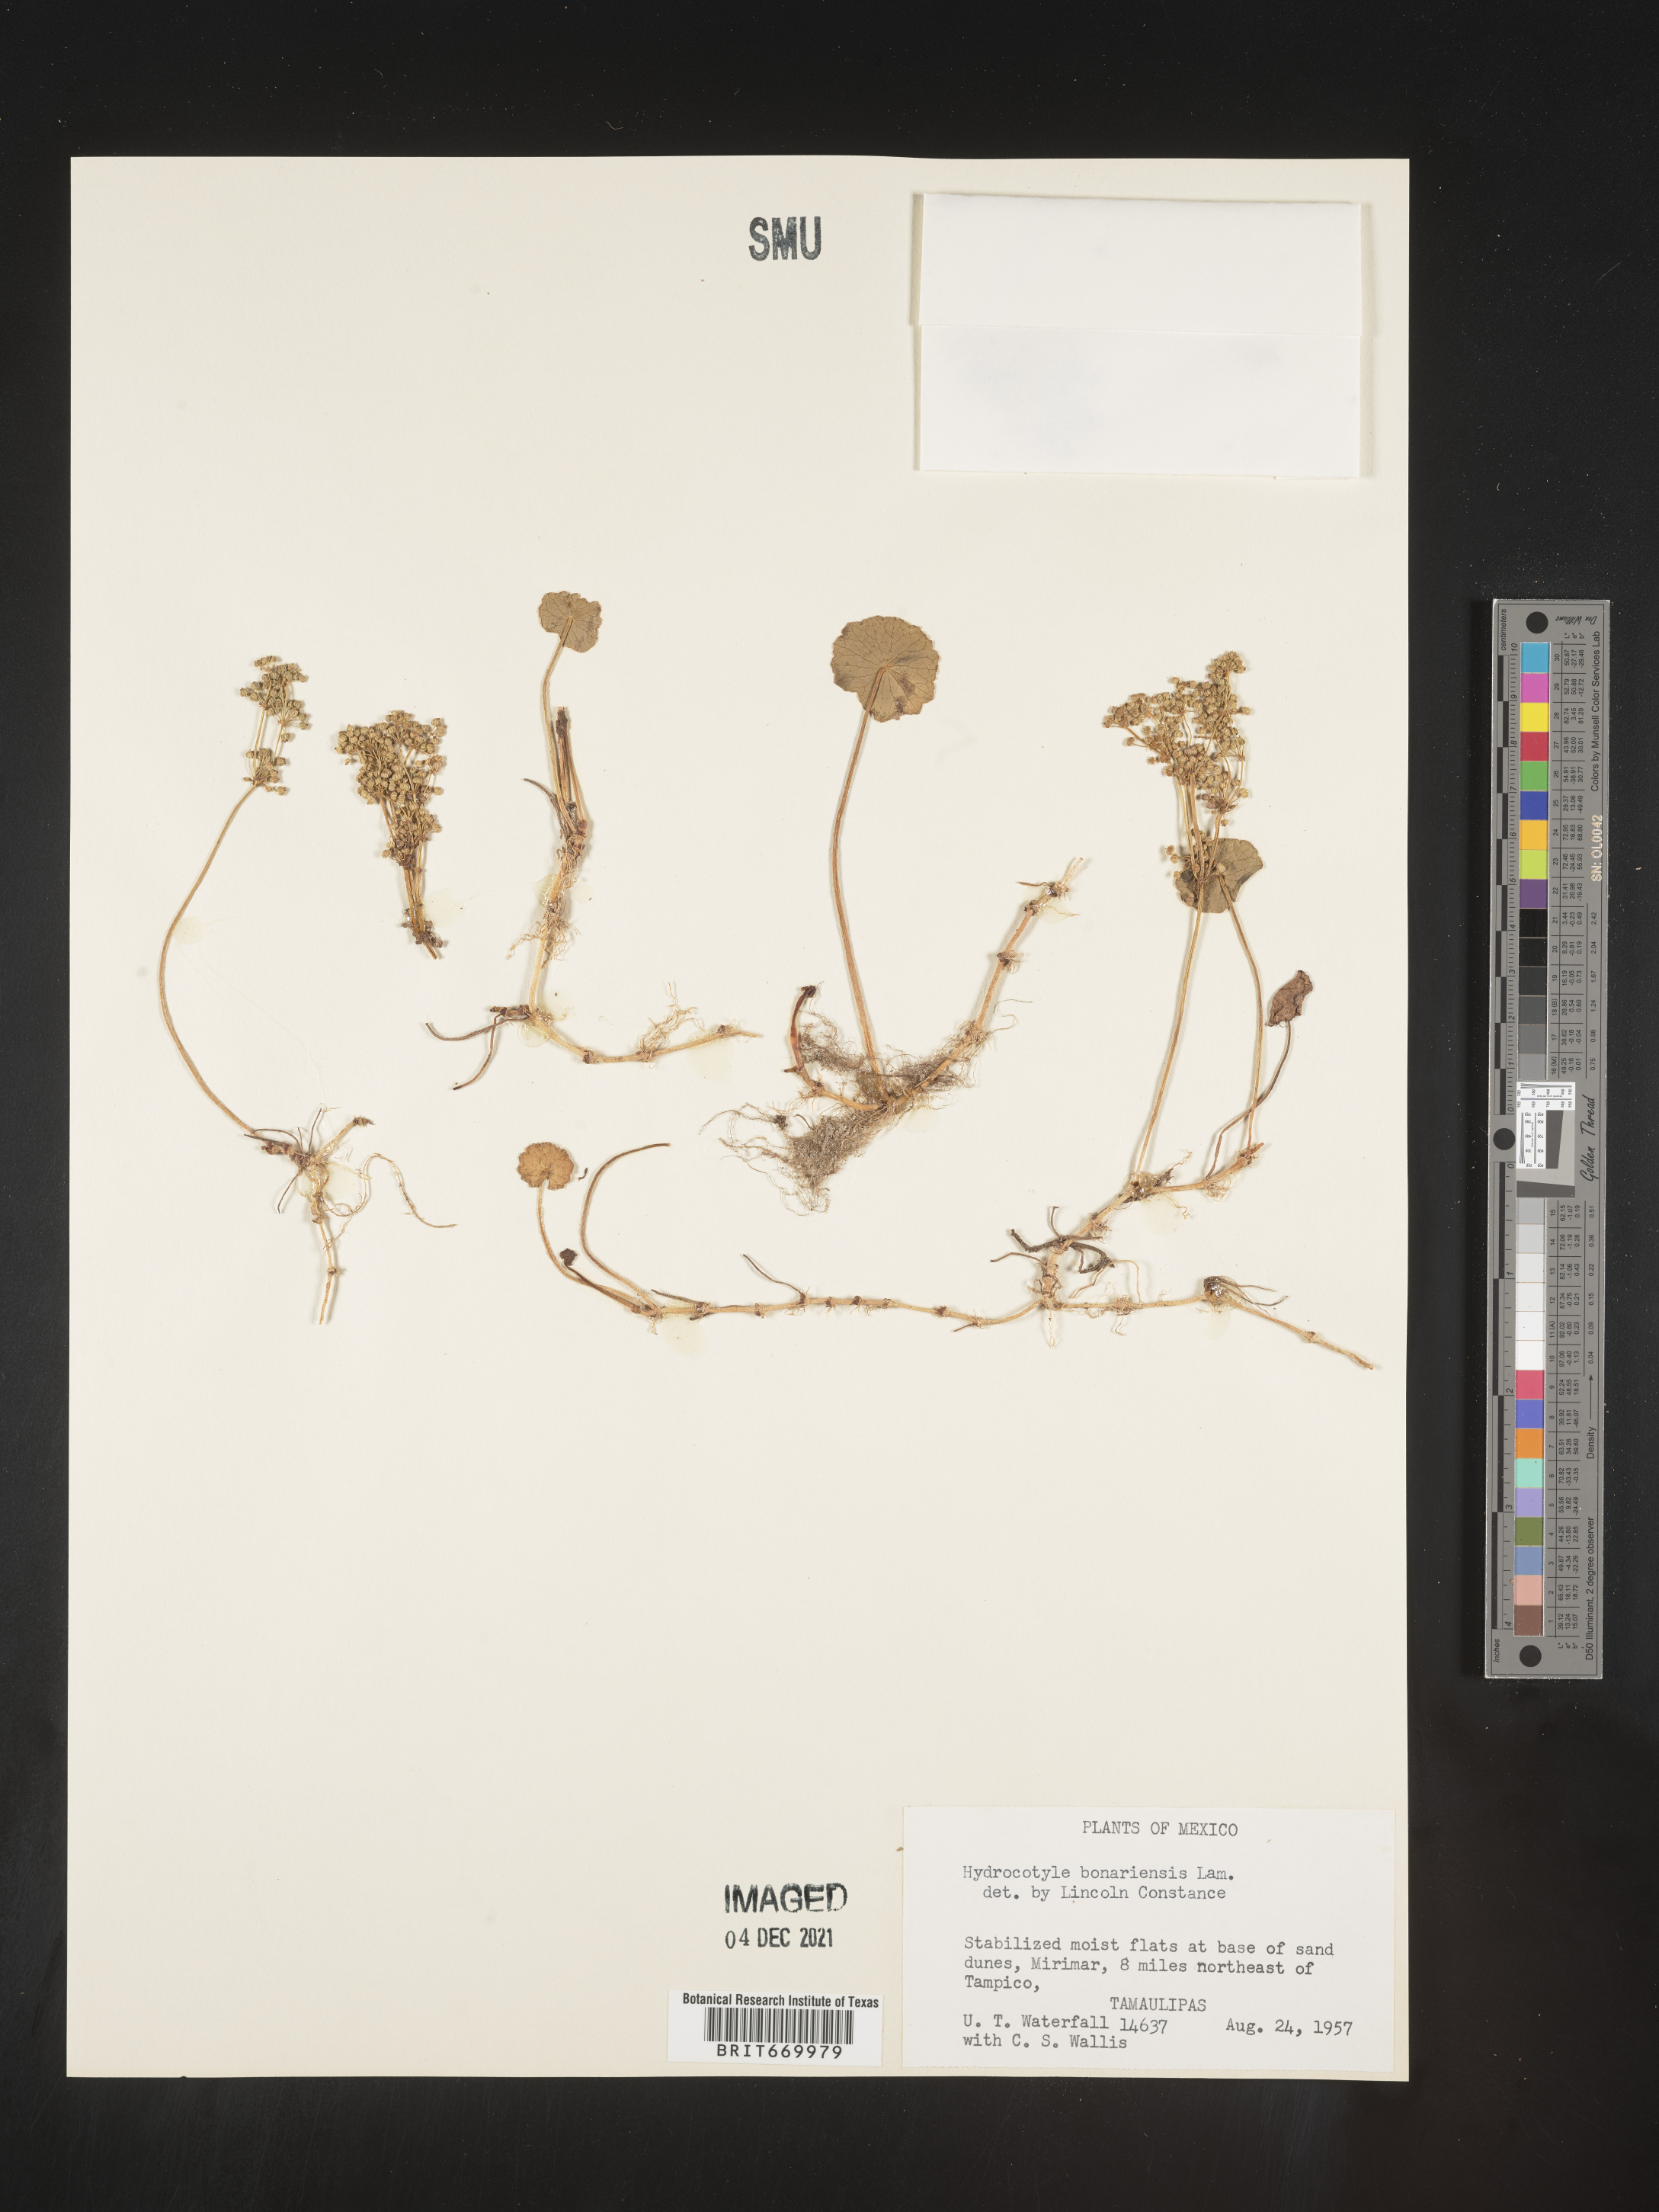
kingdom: Plantae
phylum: Tracheophyta
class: Magnoliopsida
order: Apiales
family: Araliaceae
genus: Hydrocotyle
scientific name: Hydrocotyle
